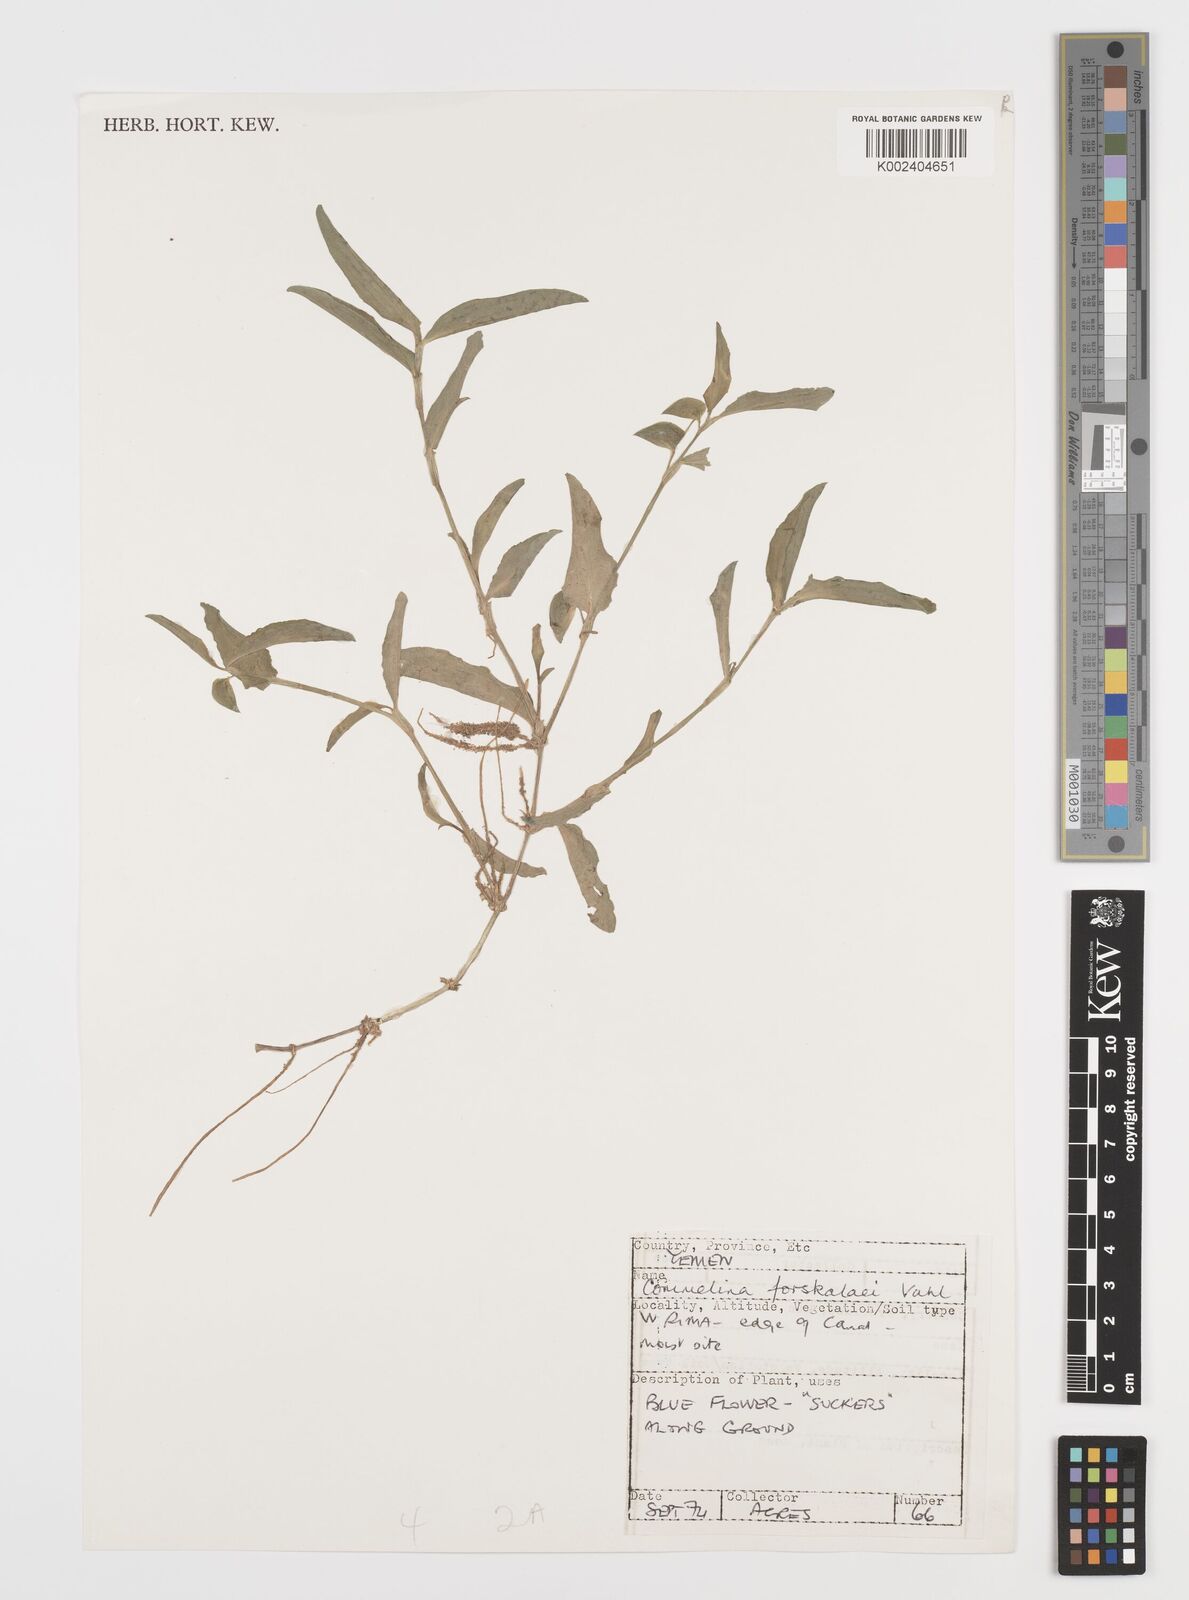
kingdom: Plantae
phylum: Tracheophyta
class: Liliopsida
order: Commelinales
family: Commelinaceae
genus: Commelina
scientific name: Commelina forskaolii
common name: Rat's ear
